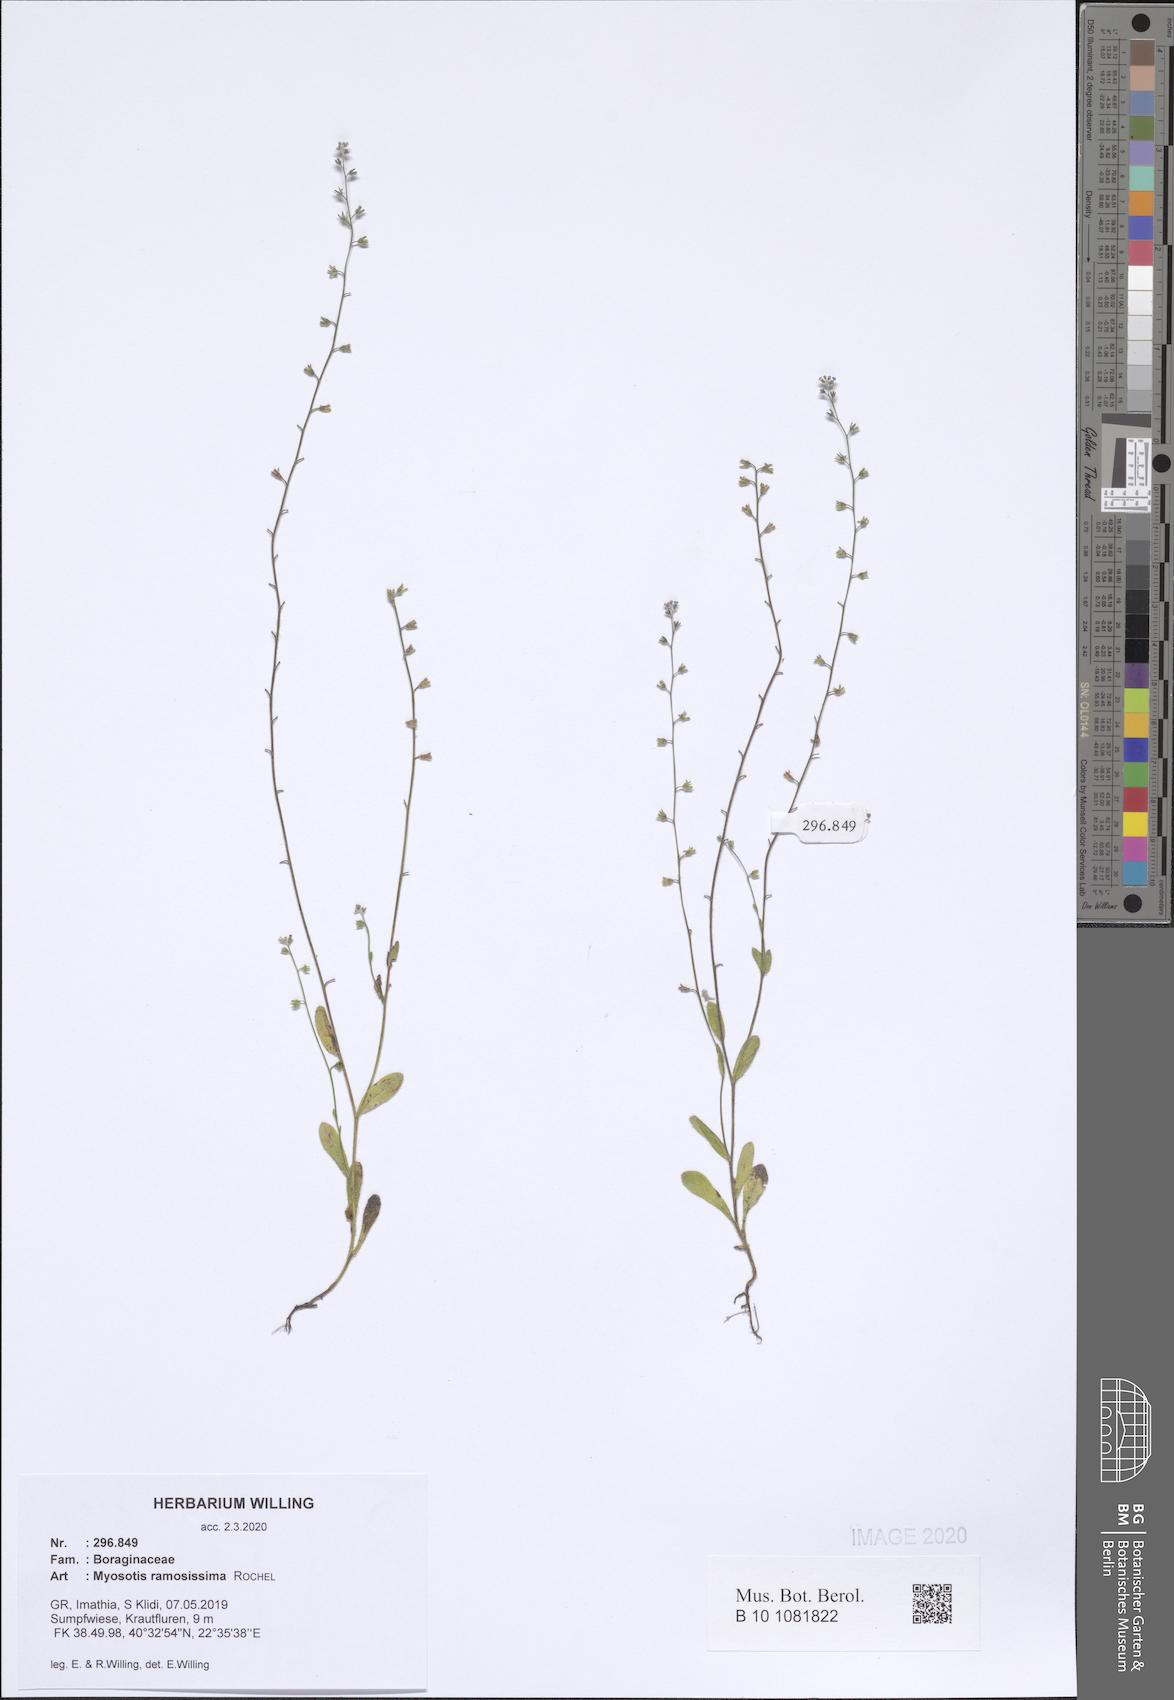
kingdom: Plantae
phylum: Tracheophyta
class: Magnoliopsida
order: Boraginales
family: Boraginaceae
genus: Myosotis
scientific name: Myosotis ramosissima
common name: Early forget-me-not
